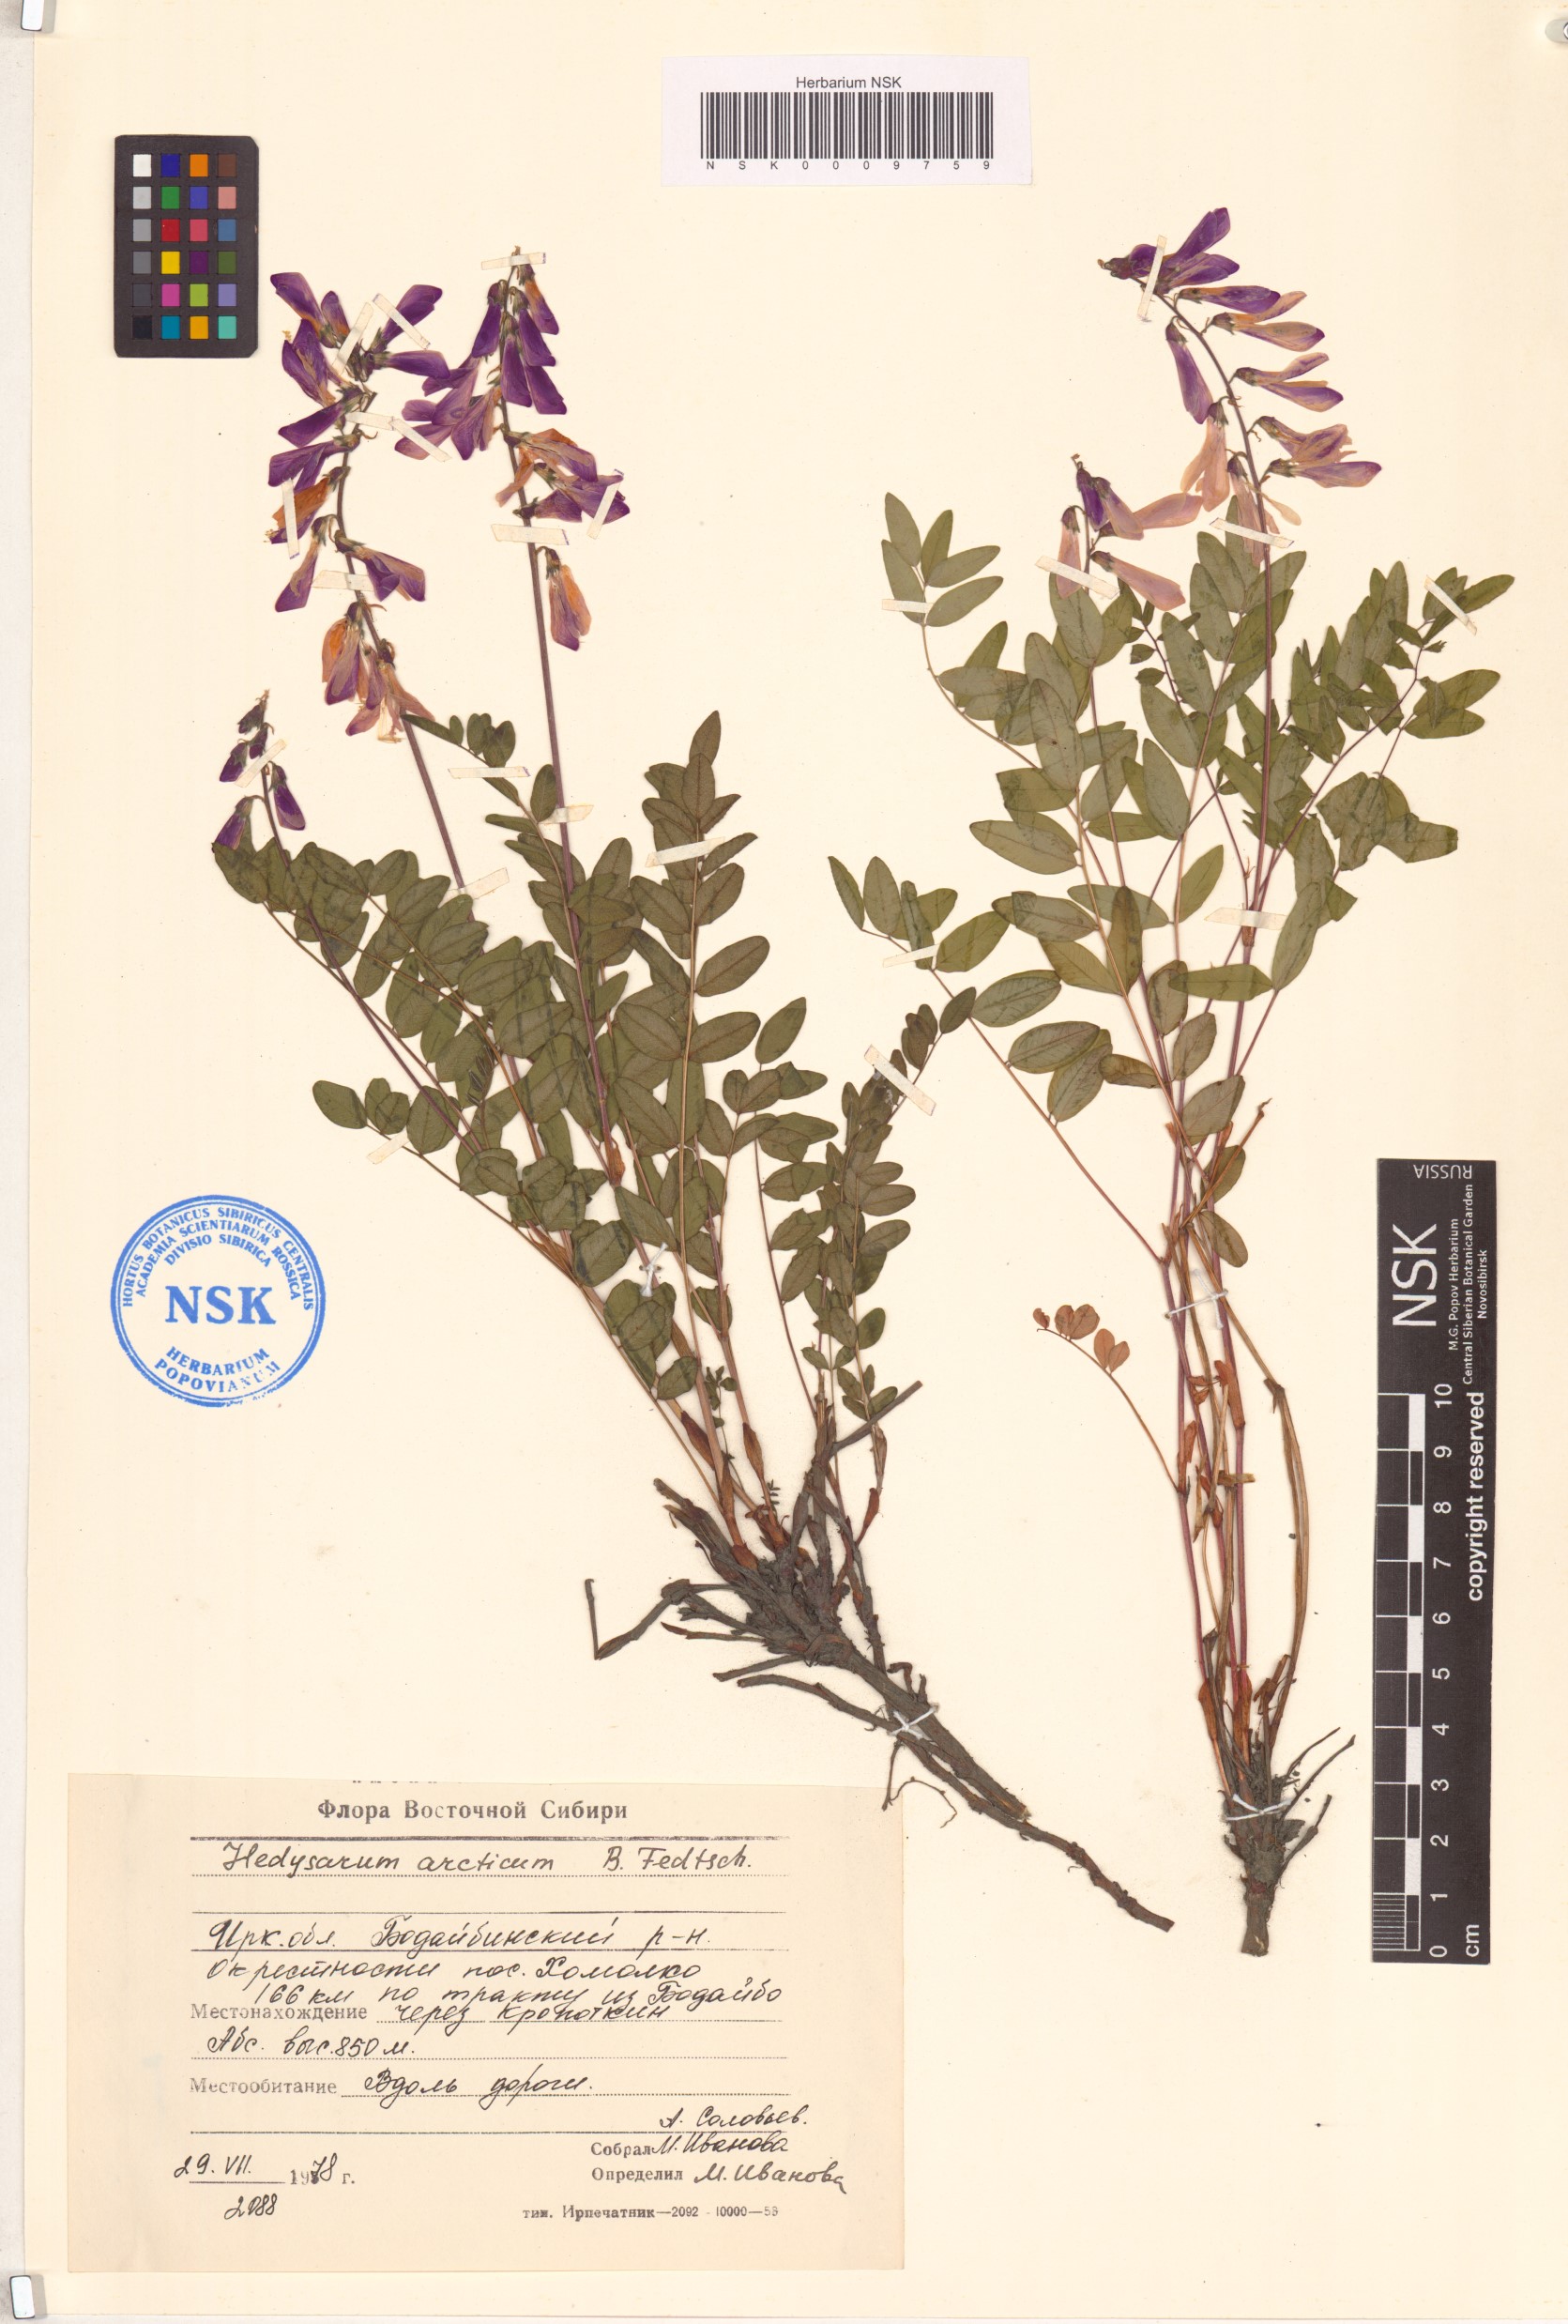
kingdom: Plantae
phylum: Tracheophyta
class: Magnoliopsida
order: Fabales
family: Fabaceae
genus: Hedysarum
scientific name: Hedysarum hedysaroides
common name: Alpine french-honeysuckle
